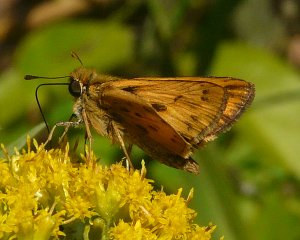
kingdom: Animalia
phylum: Arthropoda
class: Insecta
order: Lepidoptera
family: Hesperiidae
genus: Hylephila
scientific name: Hylephila phyleus
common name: Fiery Skipper
